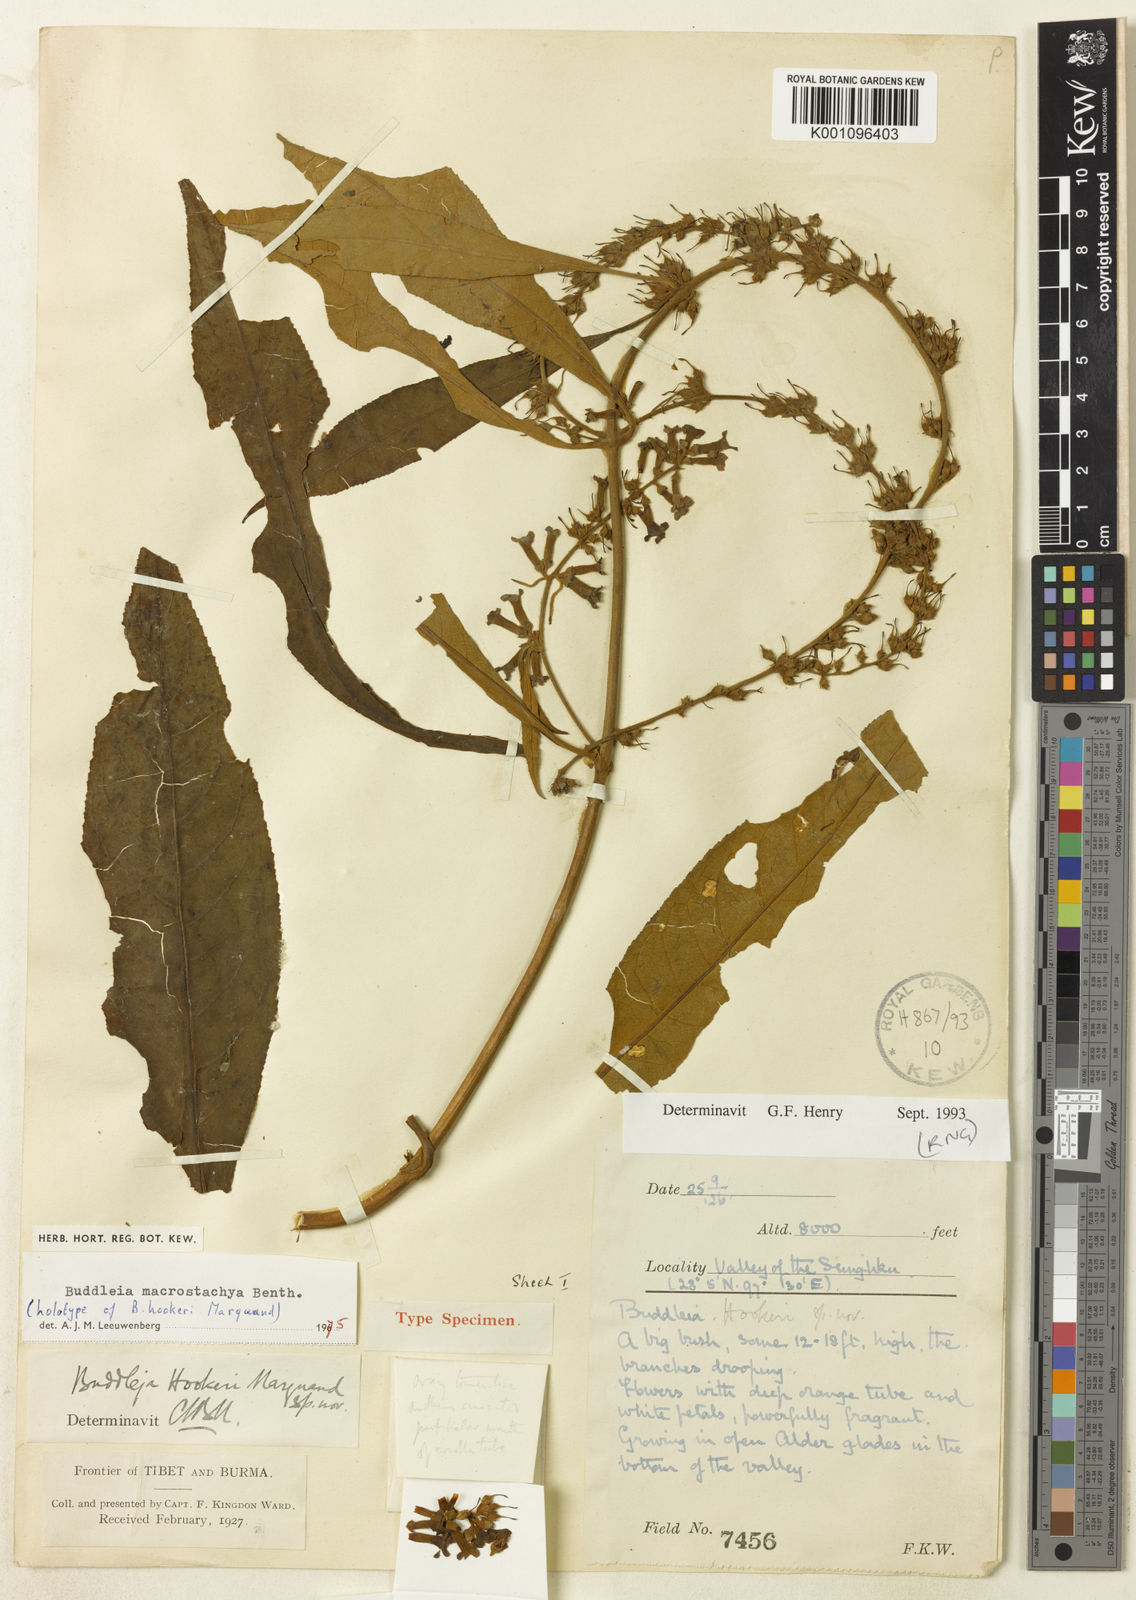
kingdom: Plantae
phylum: Tracheophyta
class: Magnoliopsida
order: Lamiales
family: Scrophulariaceae
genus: Buddleja
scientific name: Buddleja macrostachya
